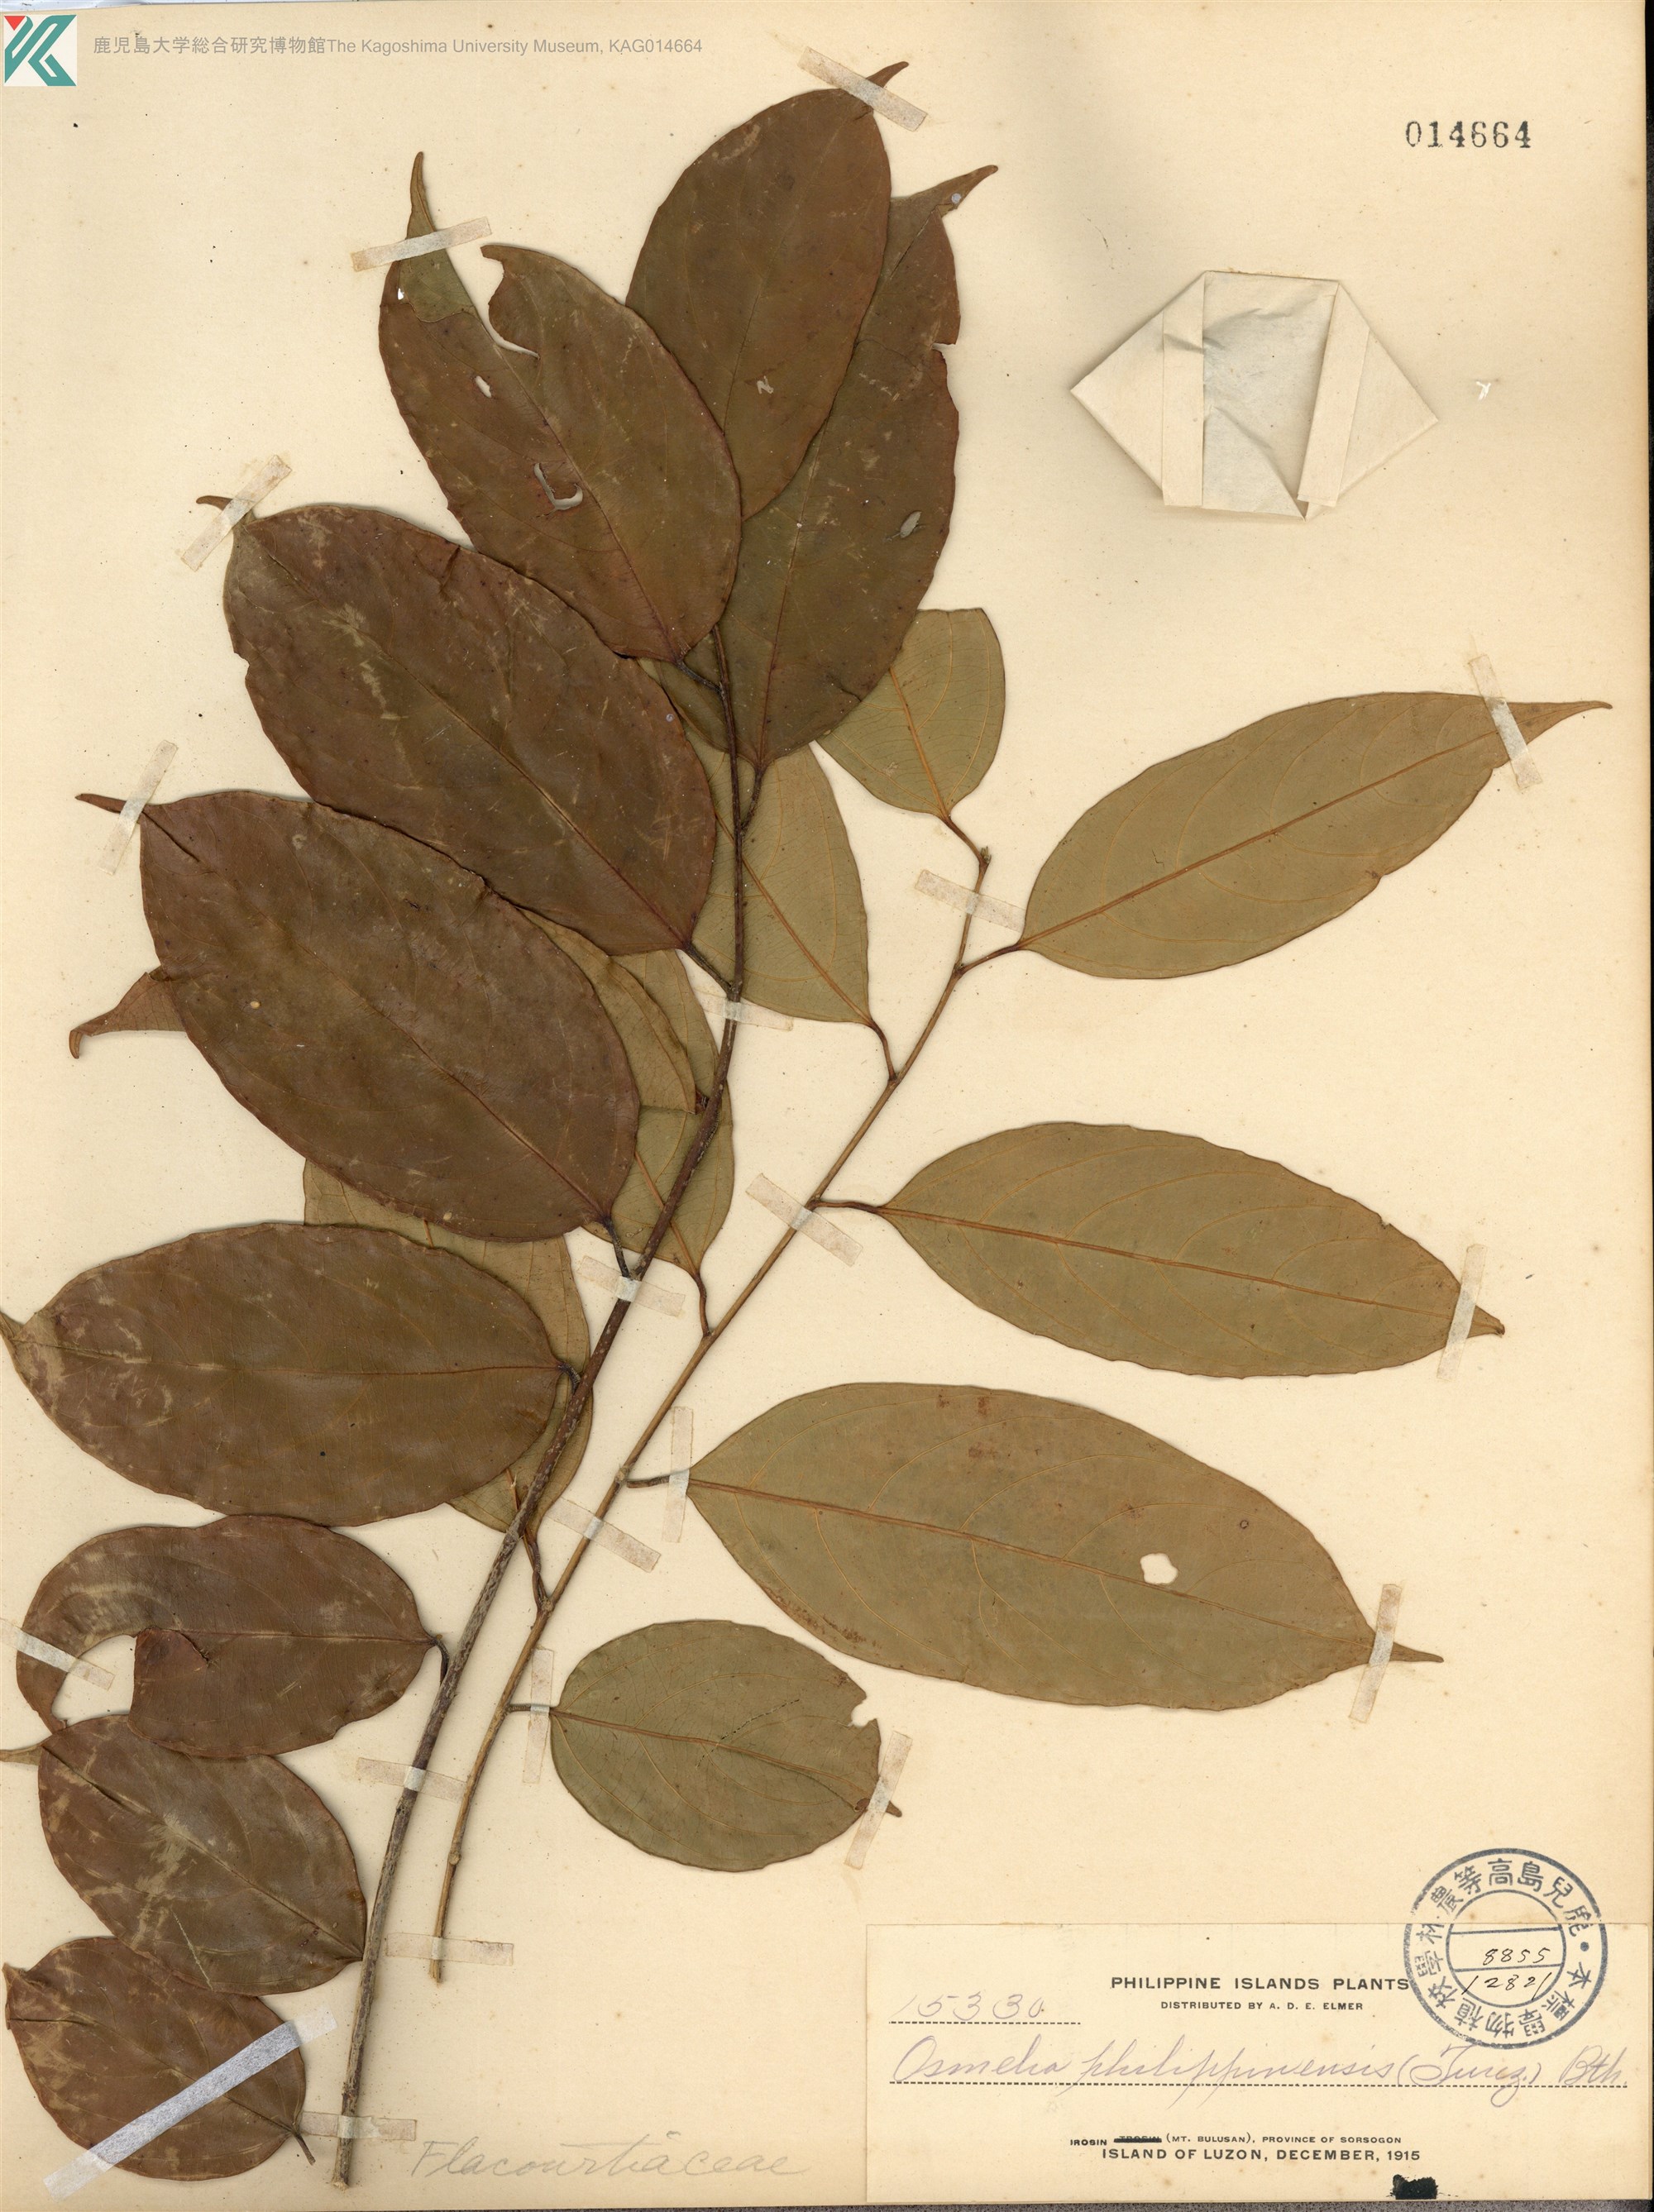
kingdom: Plantae
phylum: Tracheophyta
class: Magnoliopsida
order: Malpighiales
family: Salicaceae
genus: Osmelia
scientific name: Osmelia philippina
